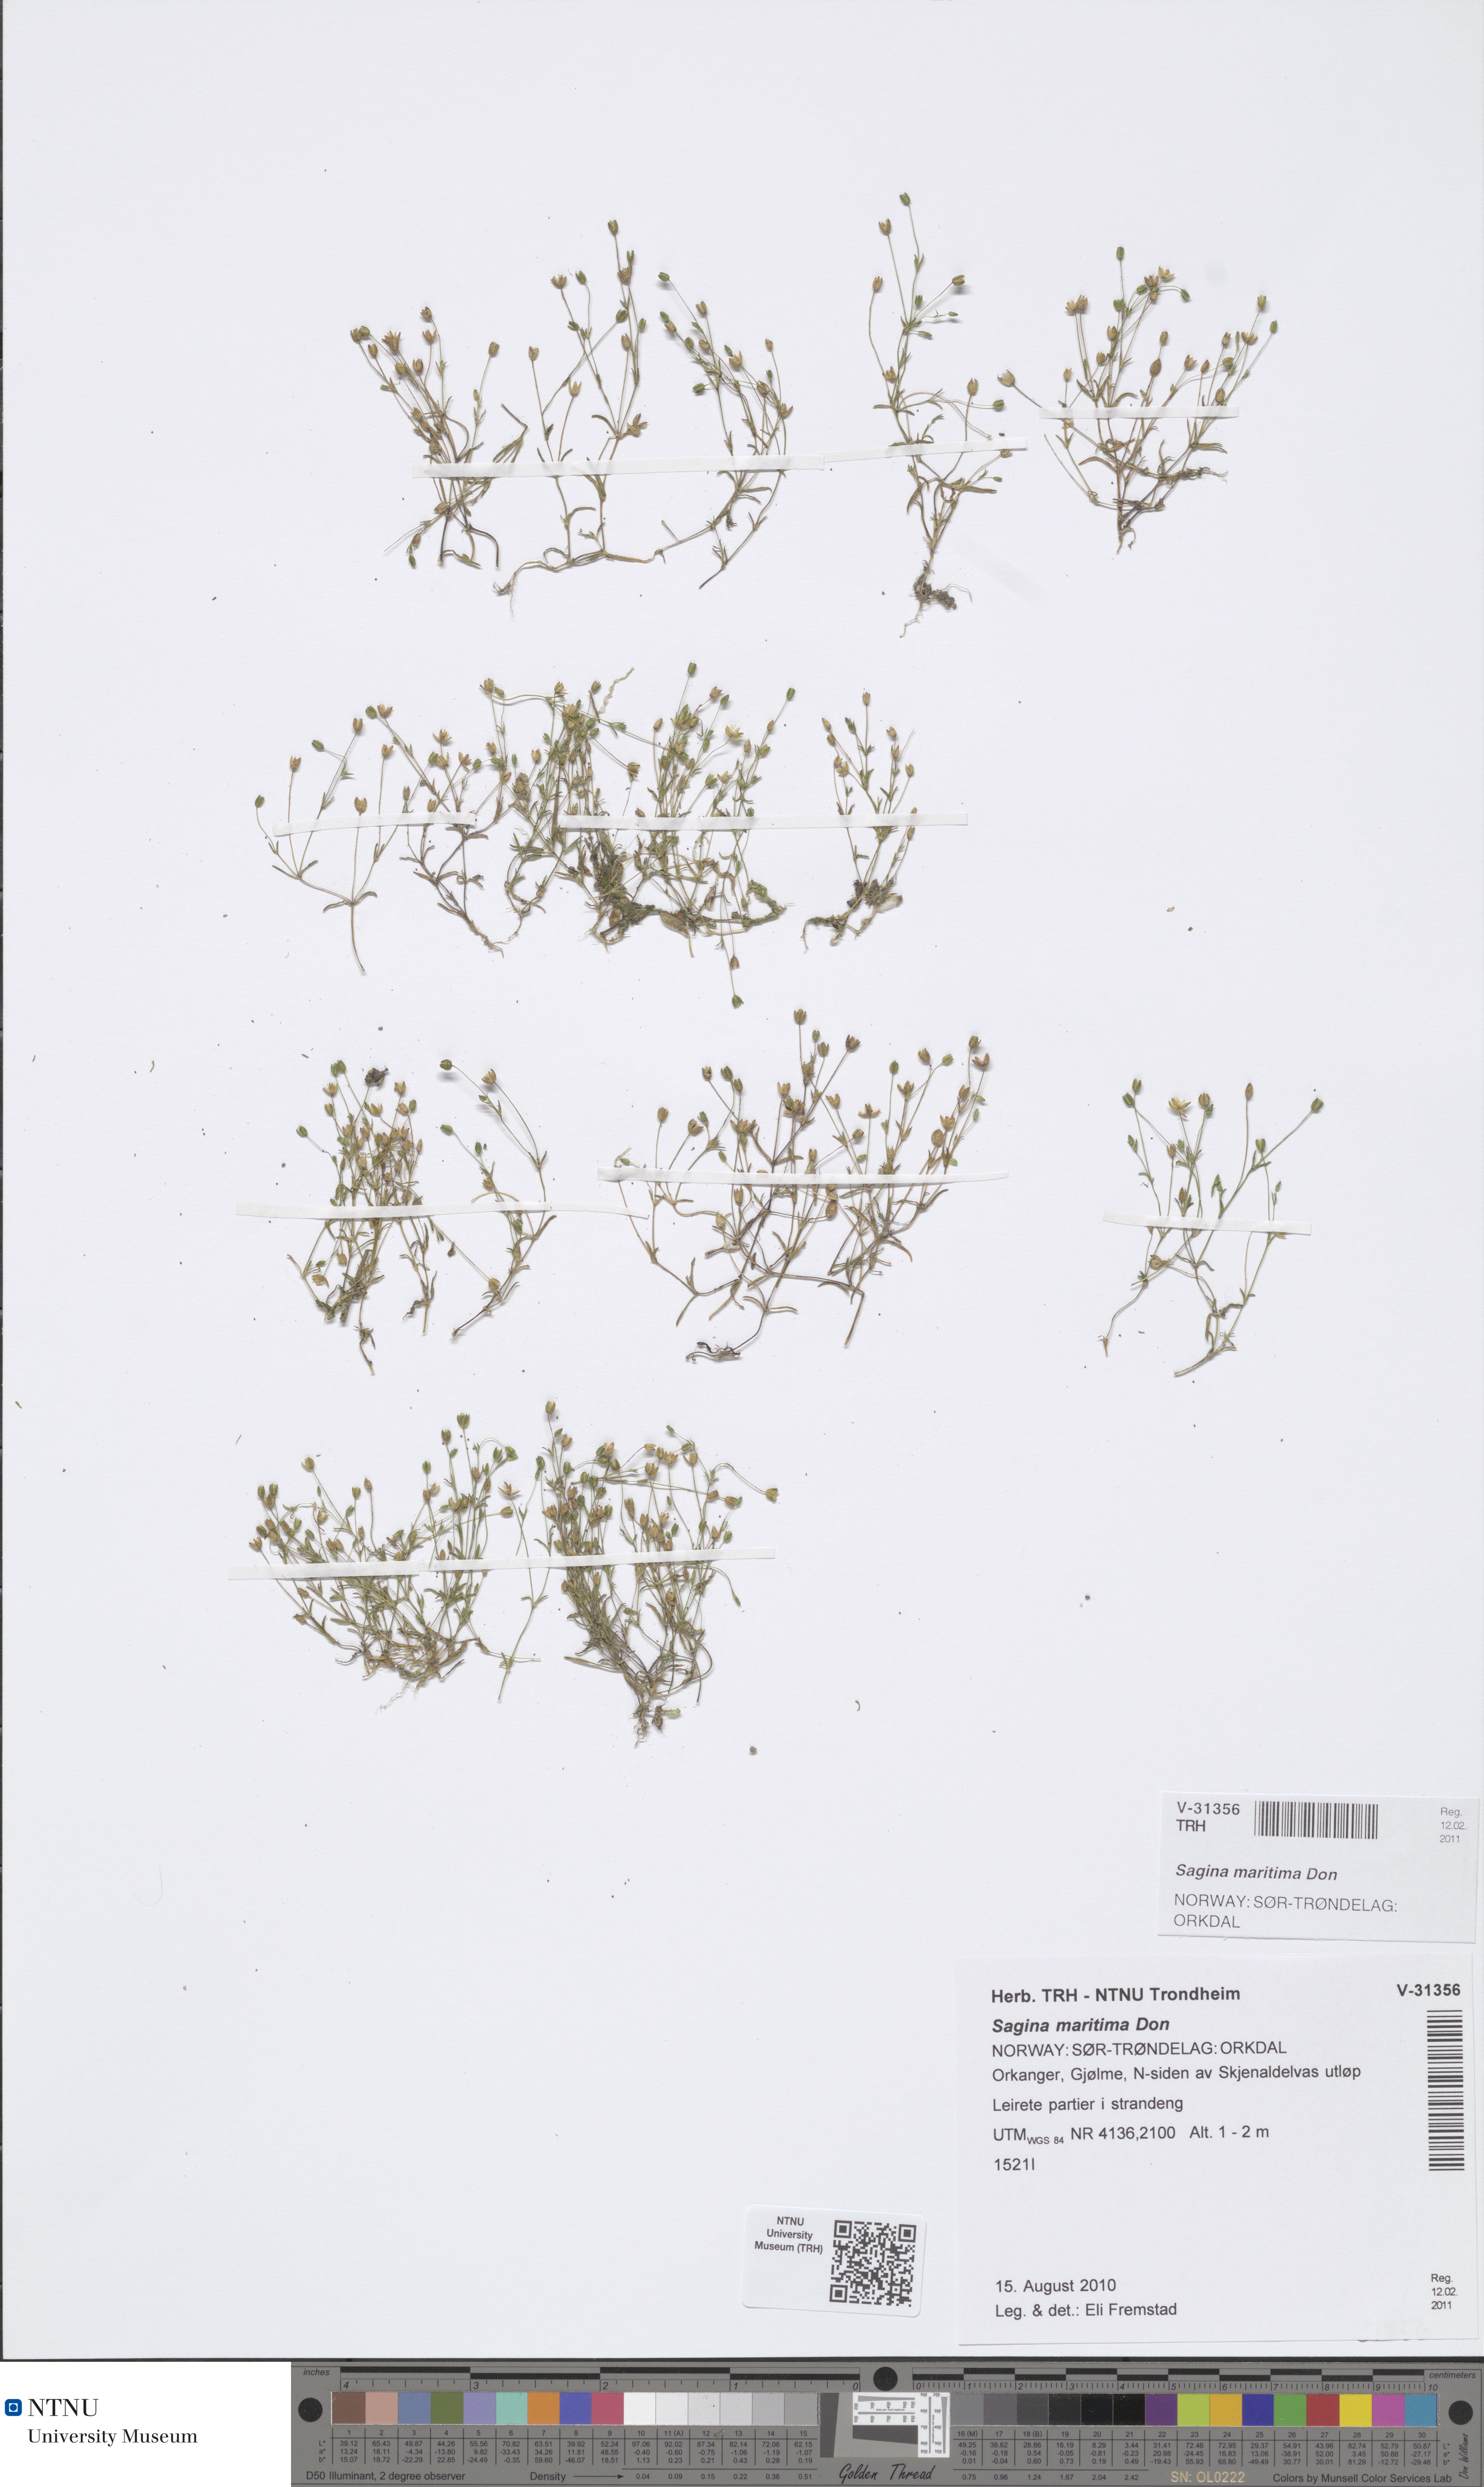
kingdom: Plantae
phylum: Tracheophyta
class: Magnoliopsida
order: Caryophyllales
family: Caryophyllaceae
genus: Sagina
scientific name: Sagina maritima
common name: Sea pearlwort
